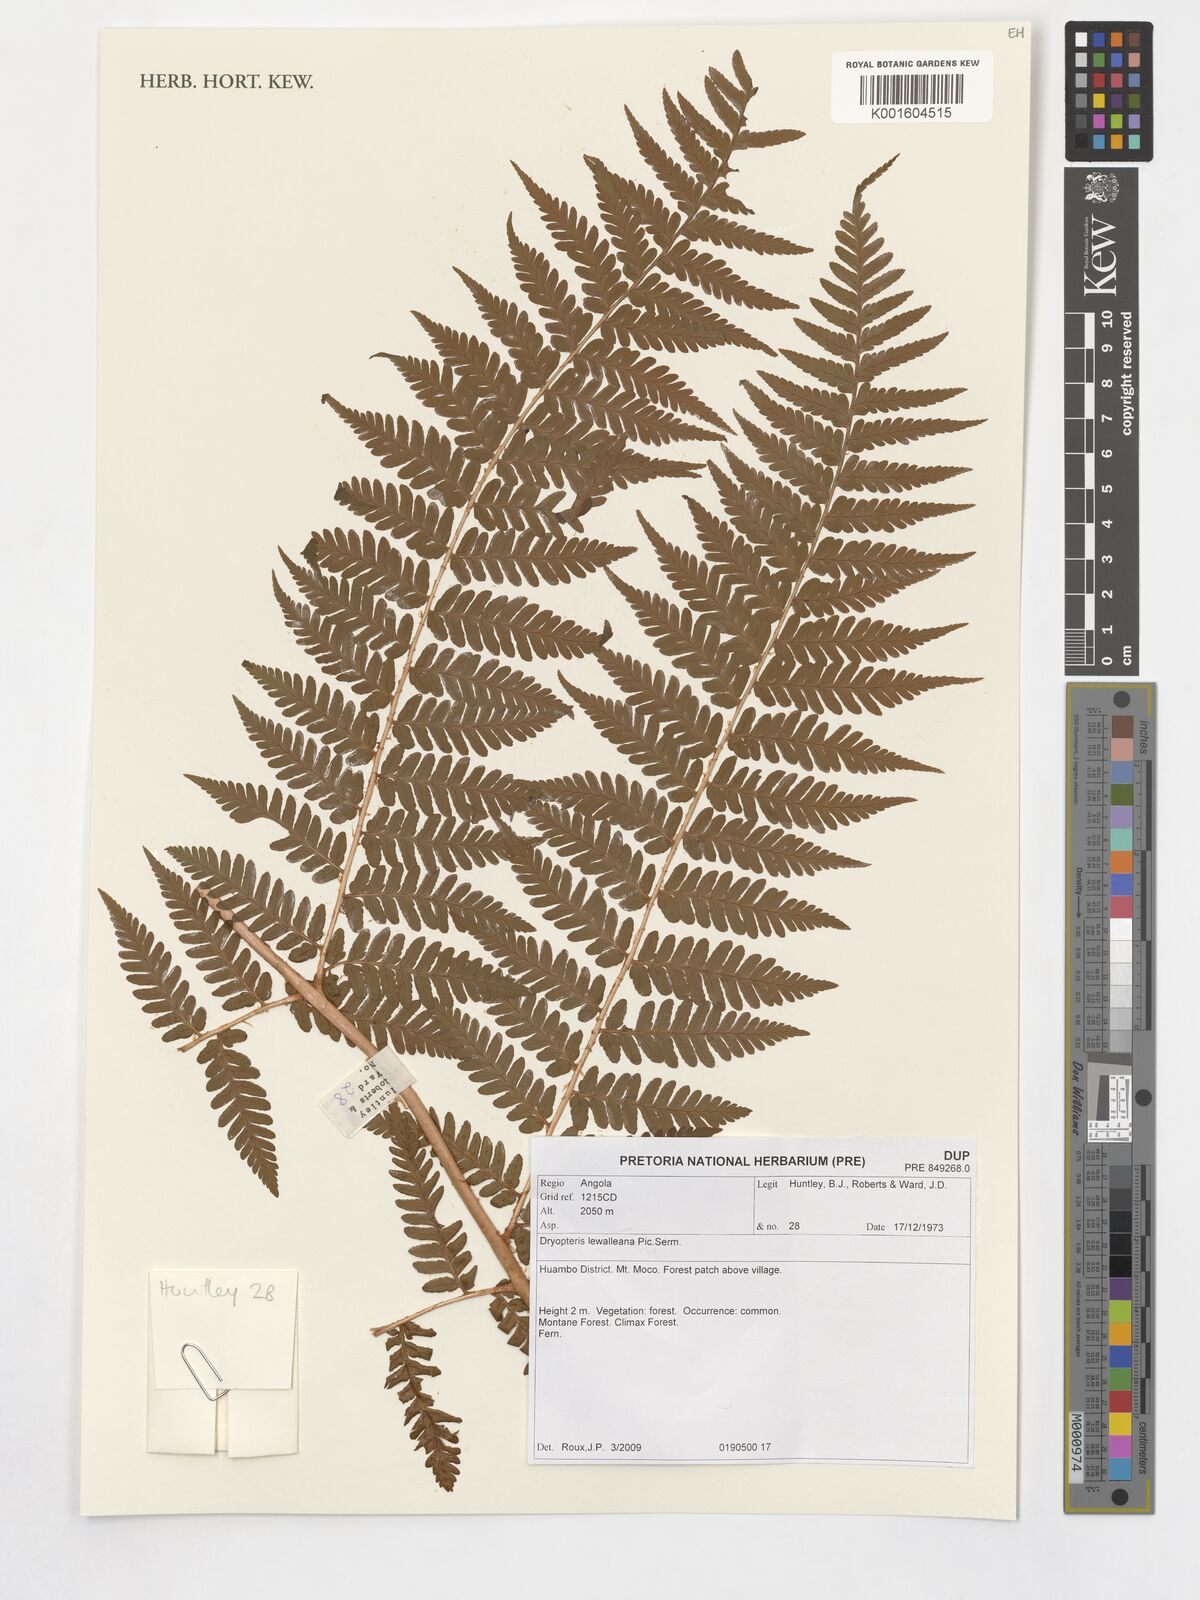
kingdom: Plantae
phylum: Tracheophyta
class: Polypodiopsida
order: Polypodiales
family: Dryopteridaceae
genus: Dryopteris
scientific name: Dryopteris lewalleana
